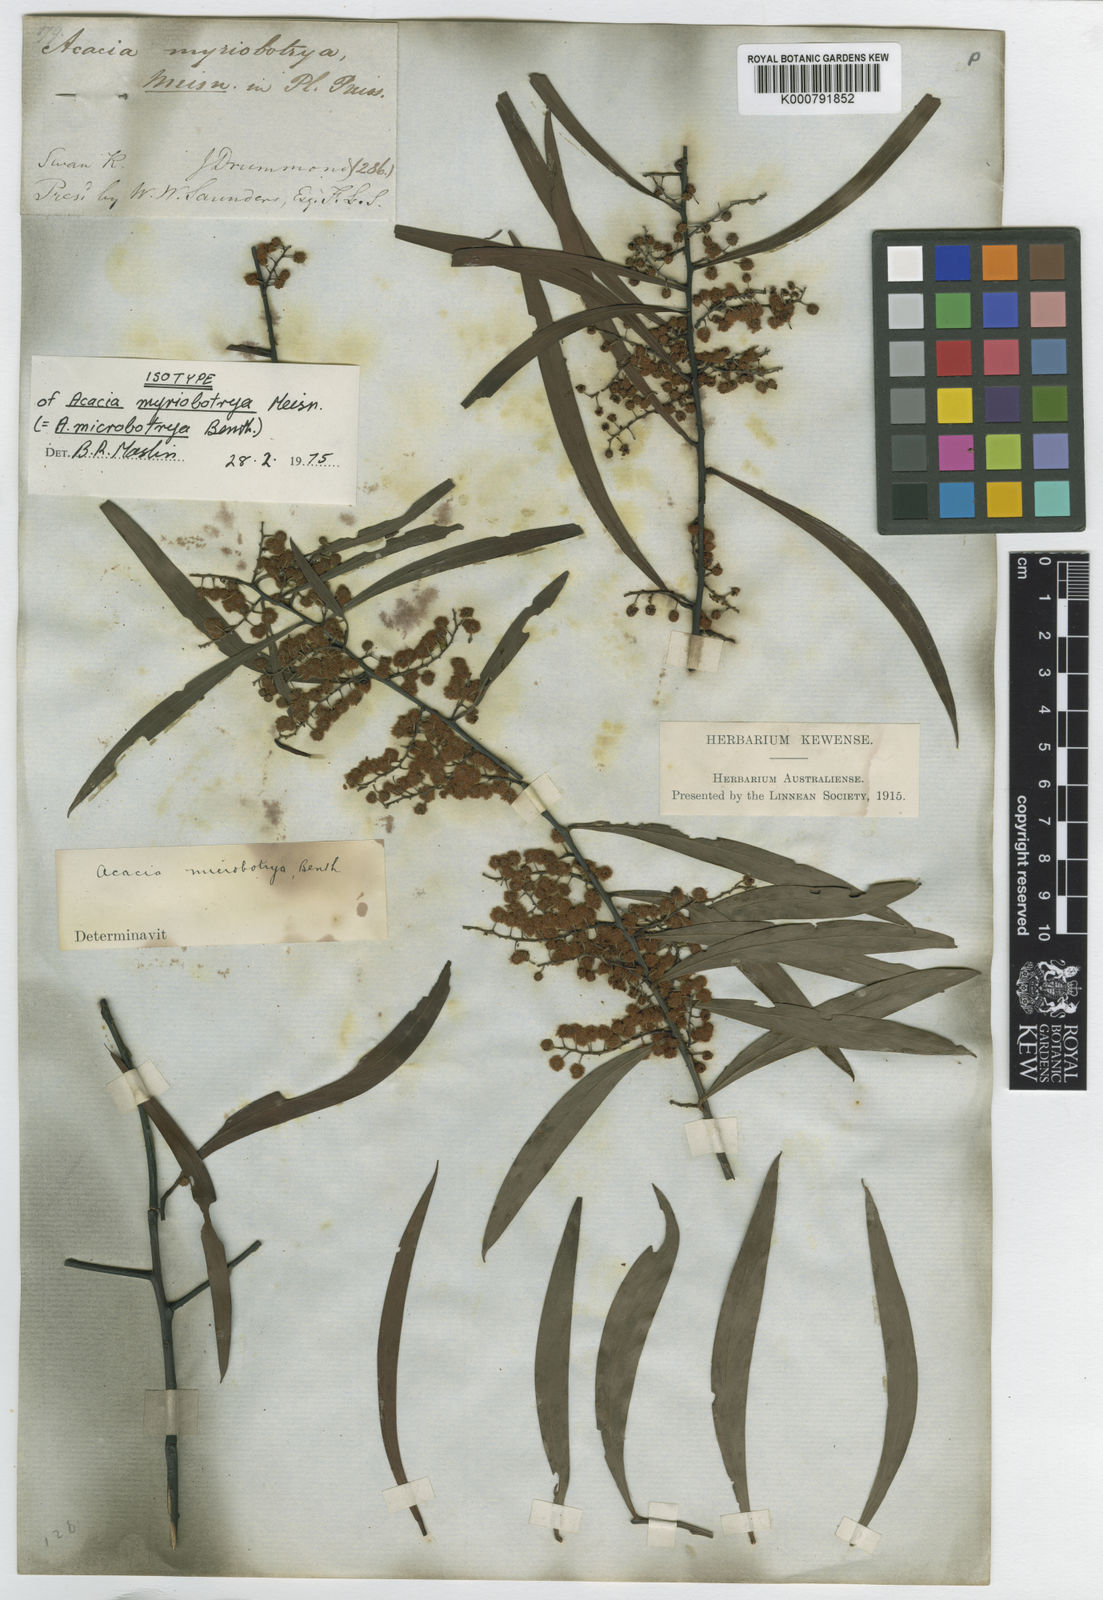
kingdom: Plantae
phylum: Tracheophyta
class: Magnoliopsida
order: Fabales
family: Fabaceae
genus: Acacia
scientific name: Acacia microbotrya
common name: Manna wattle
